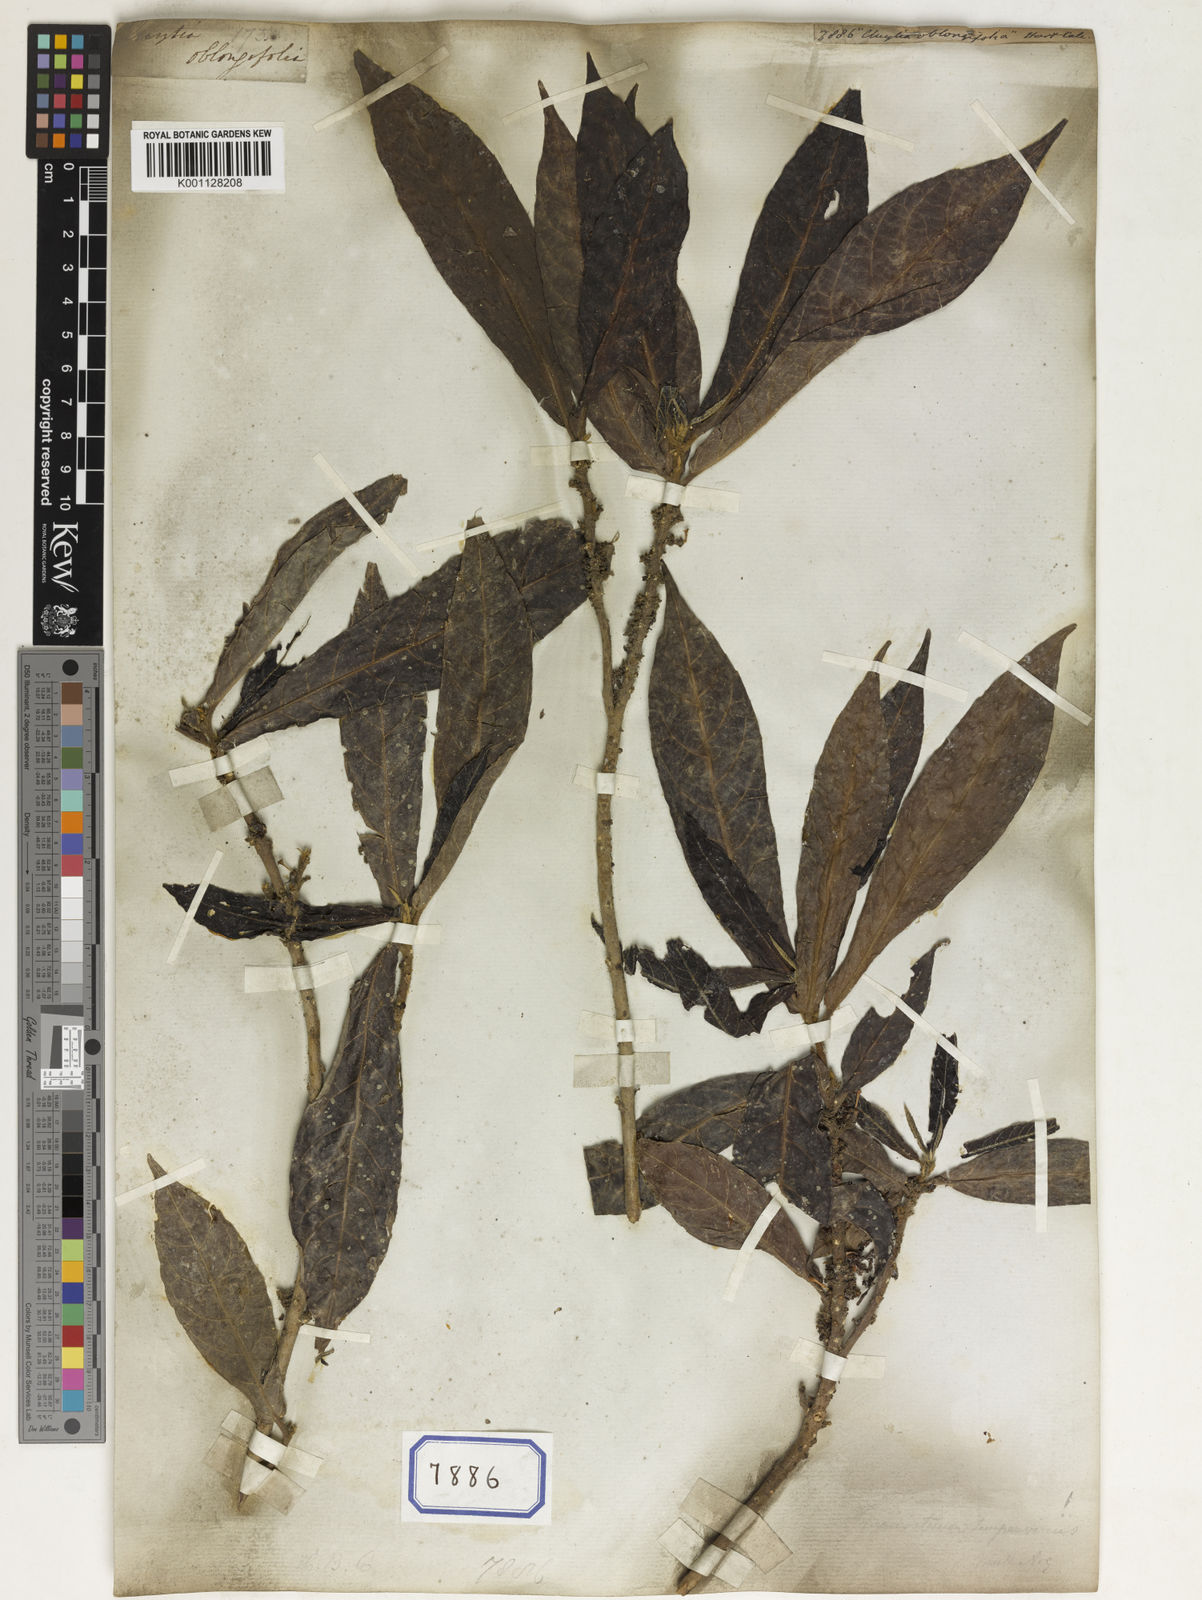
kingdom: Plantae
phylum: Tracheophyta
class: Magnoliopsida
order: Malpighiales
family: Euphorbiaceae
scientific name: Euphorbiaceae
